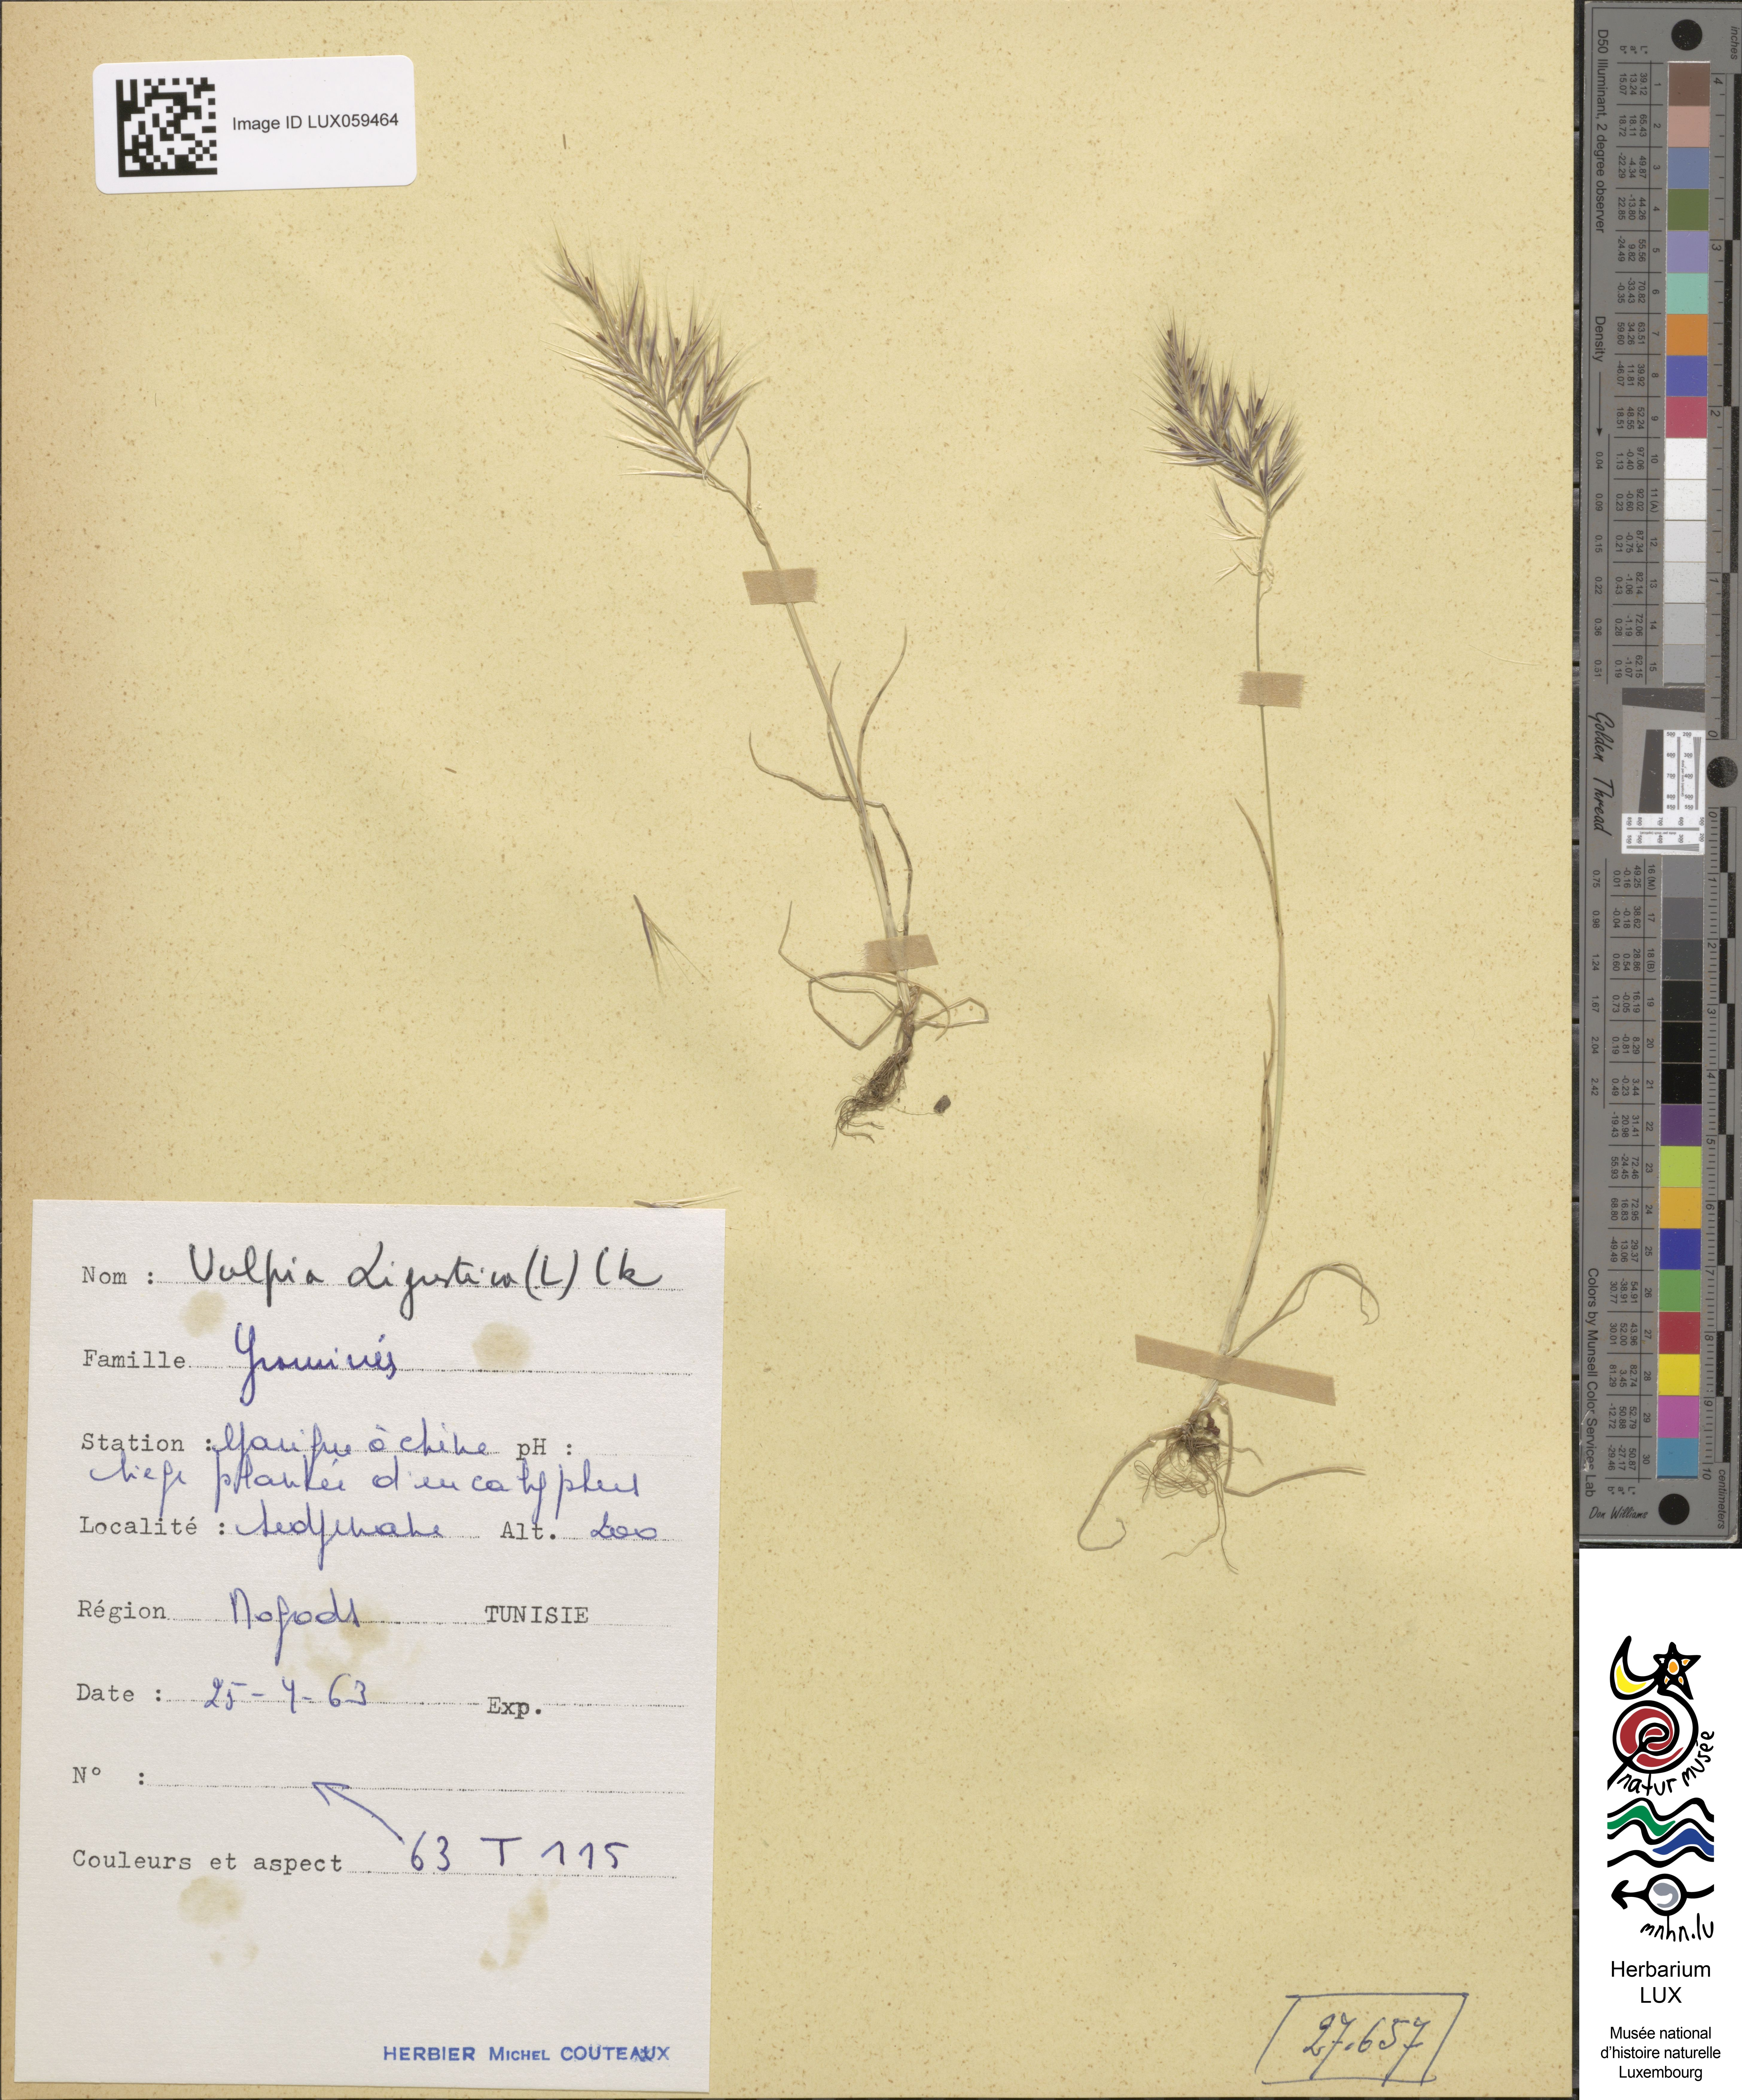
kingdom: Plantae
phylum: Tracheophyta
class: Liliopsida
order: Poales
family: Poaceae
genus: Festuca
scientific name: Festuca ligustica
